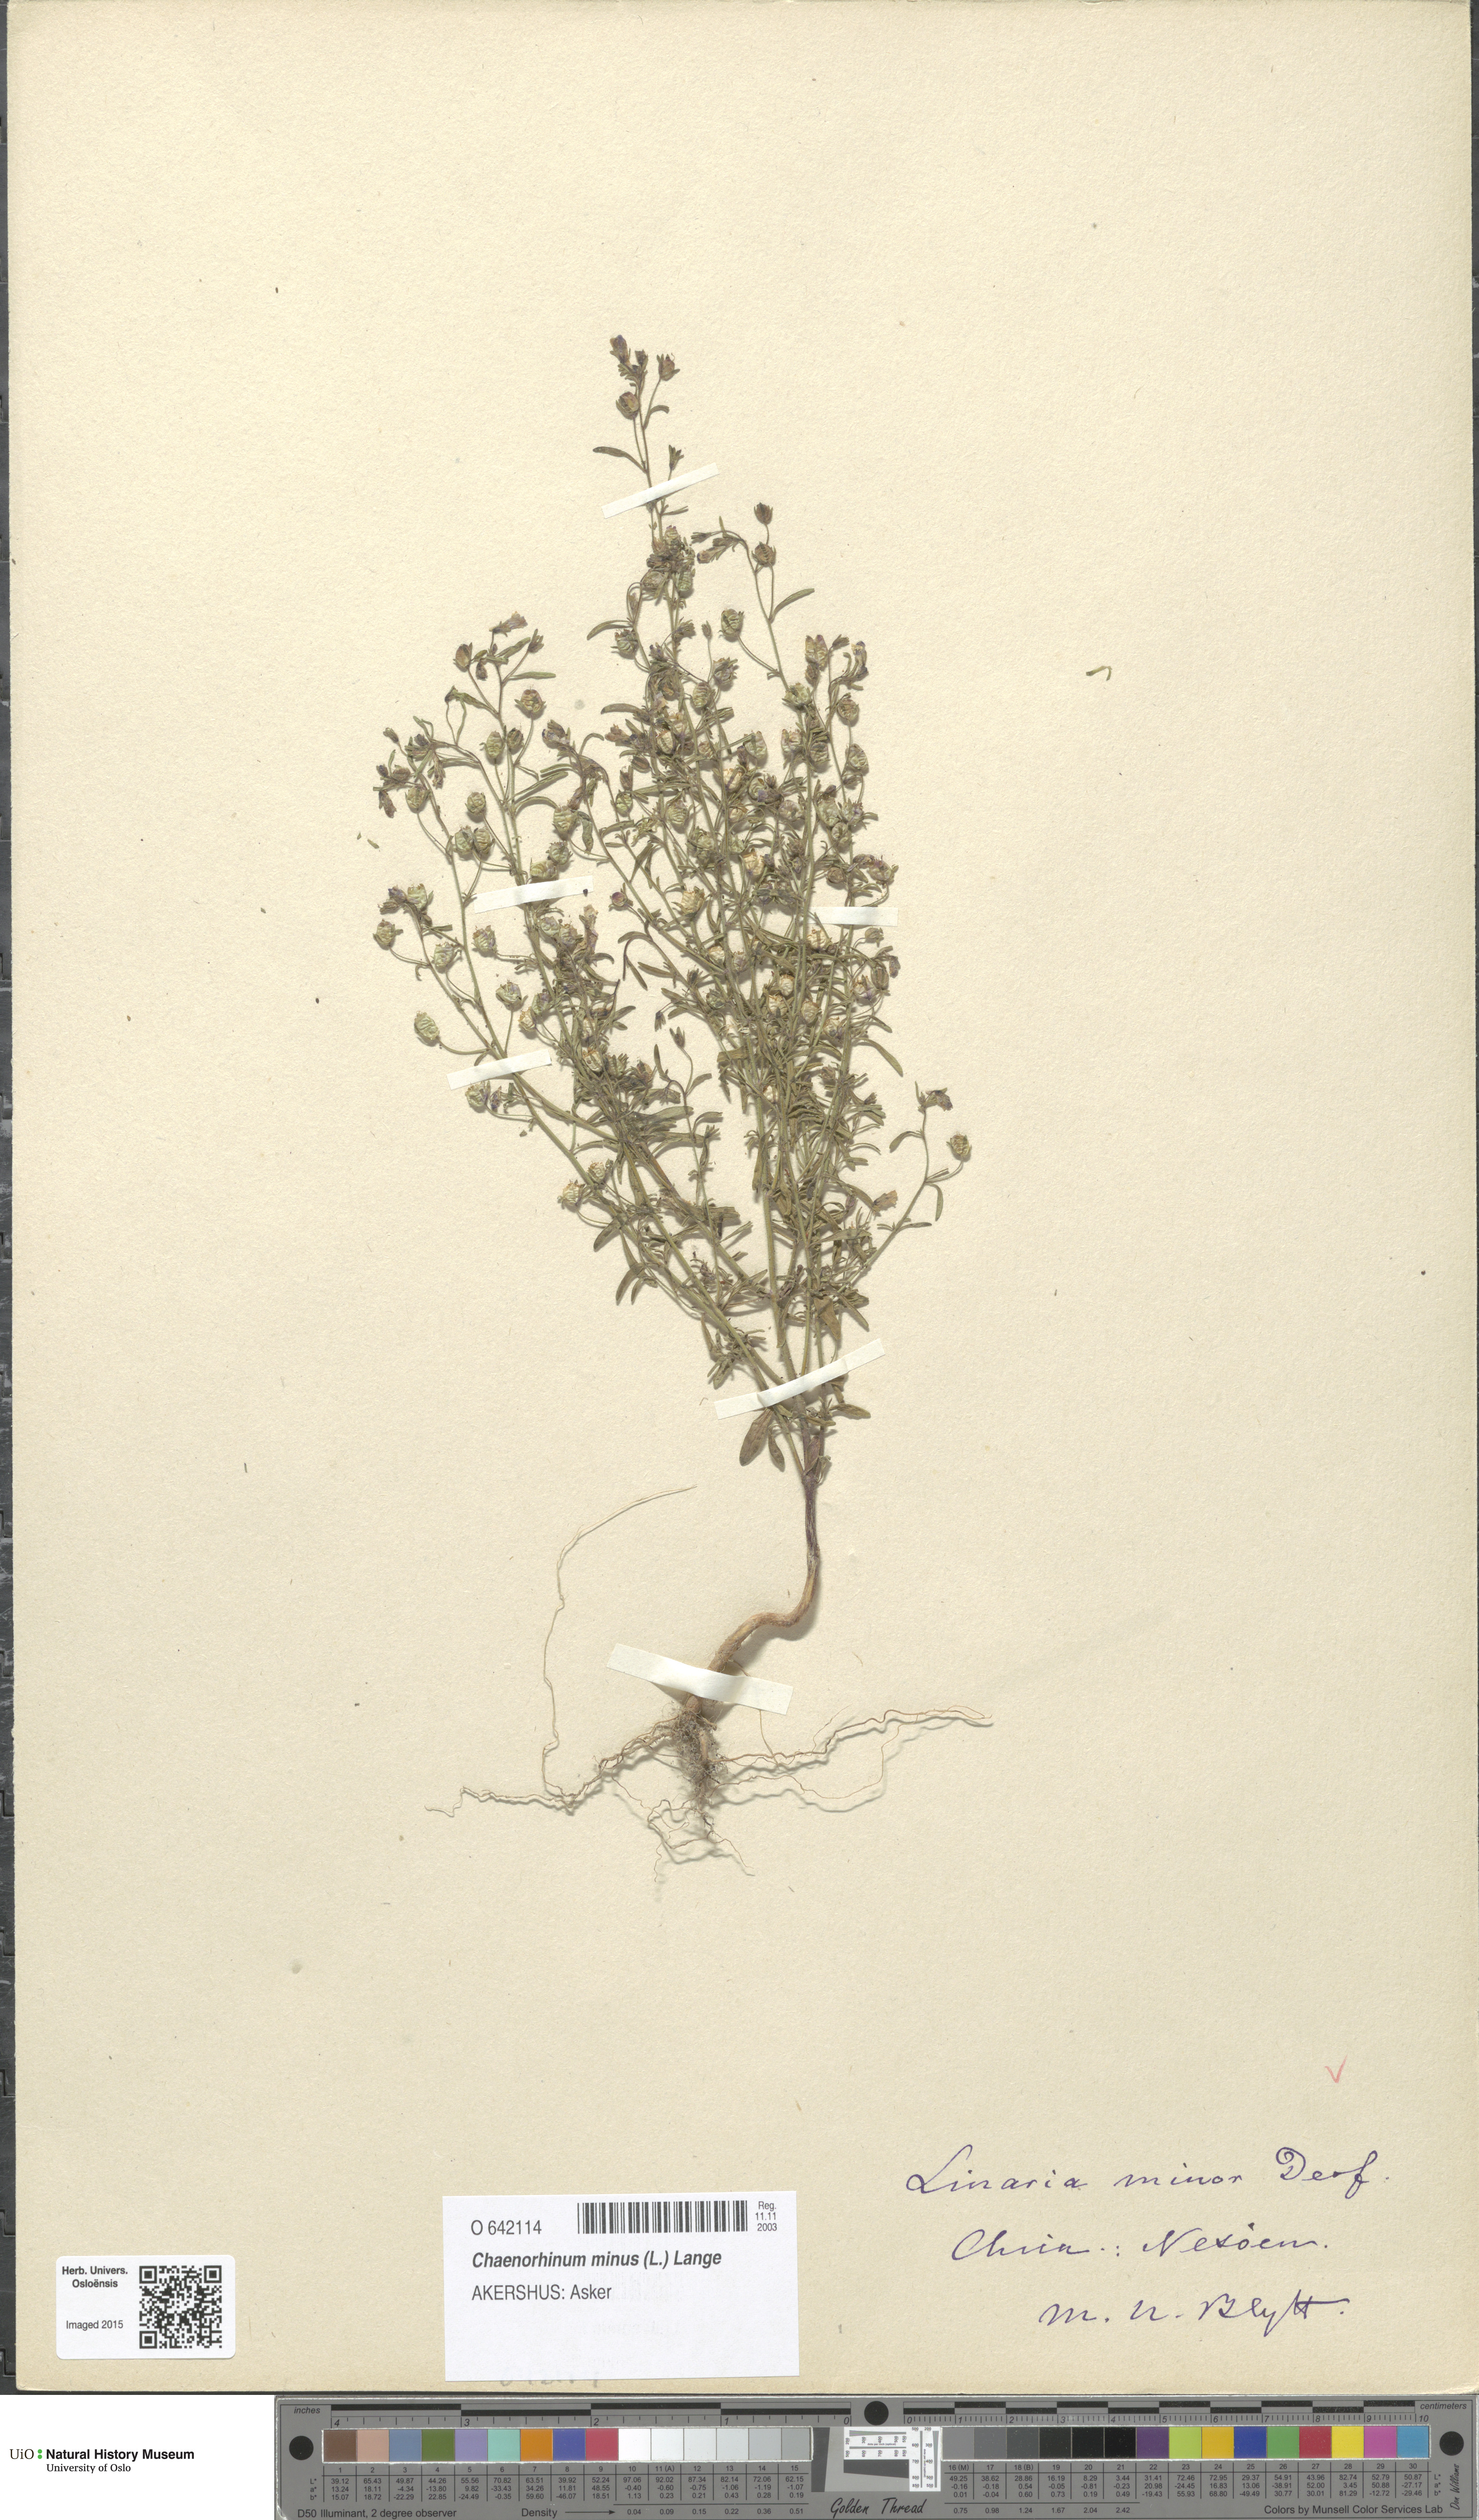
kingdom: Plantae
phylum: Tracheophyta
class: Magnoliopsida
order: Lamiales
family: Plantaginaceae
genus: Chaenorhinum
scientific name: Chaenorhinum minus
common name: Dwarf snapdragon
